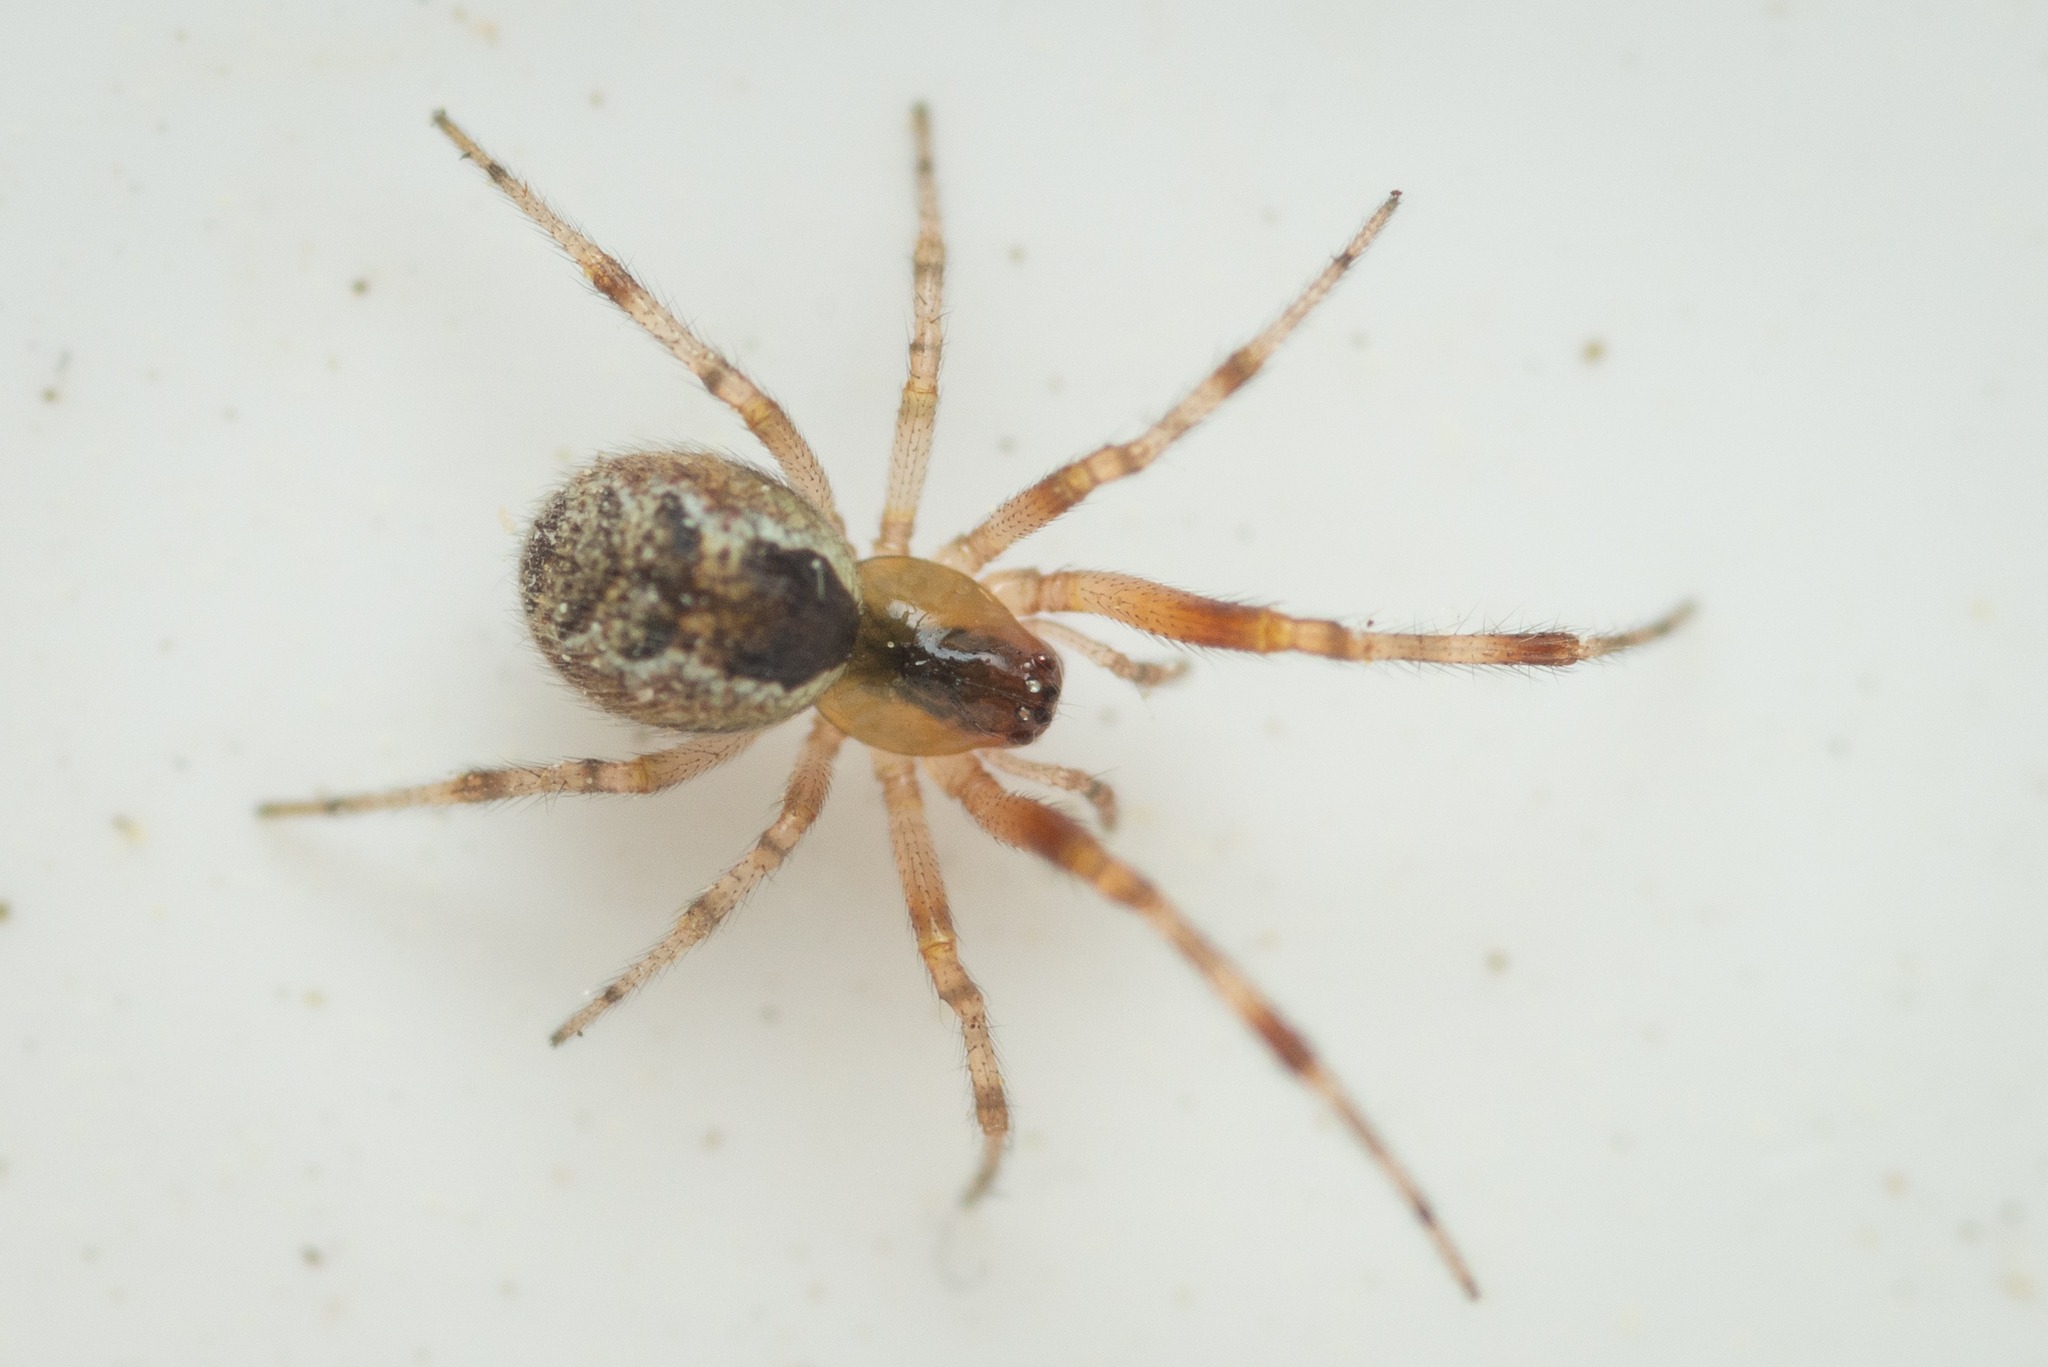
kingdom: Animalia
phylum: Arthropoda
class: Arachnida
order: Araneae
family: Theridiidae
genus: Anelosimus
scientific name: Anelosimus vittatus
